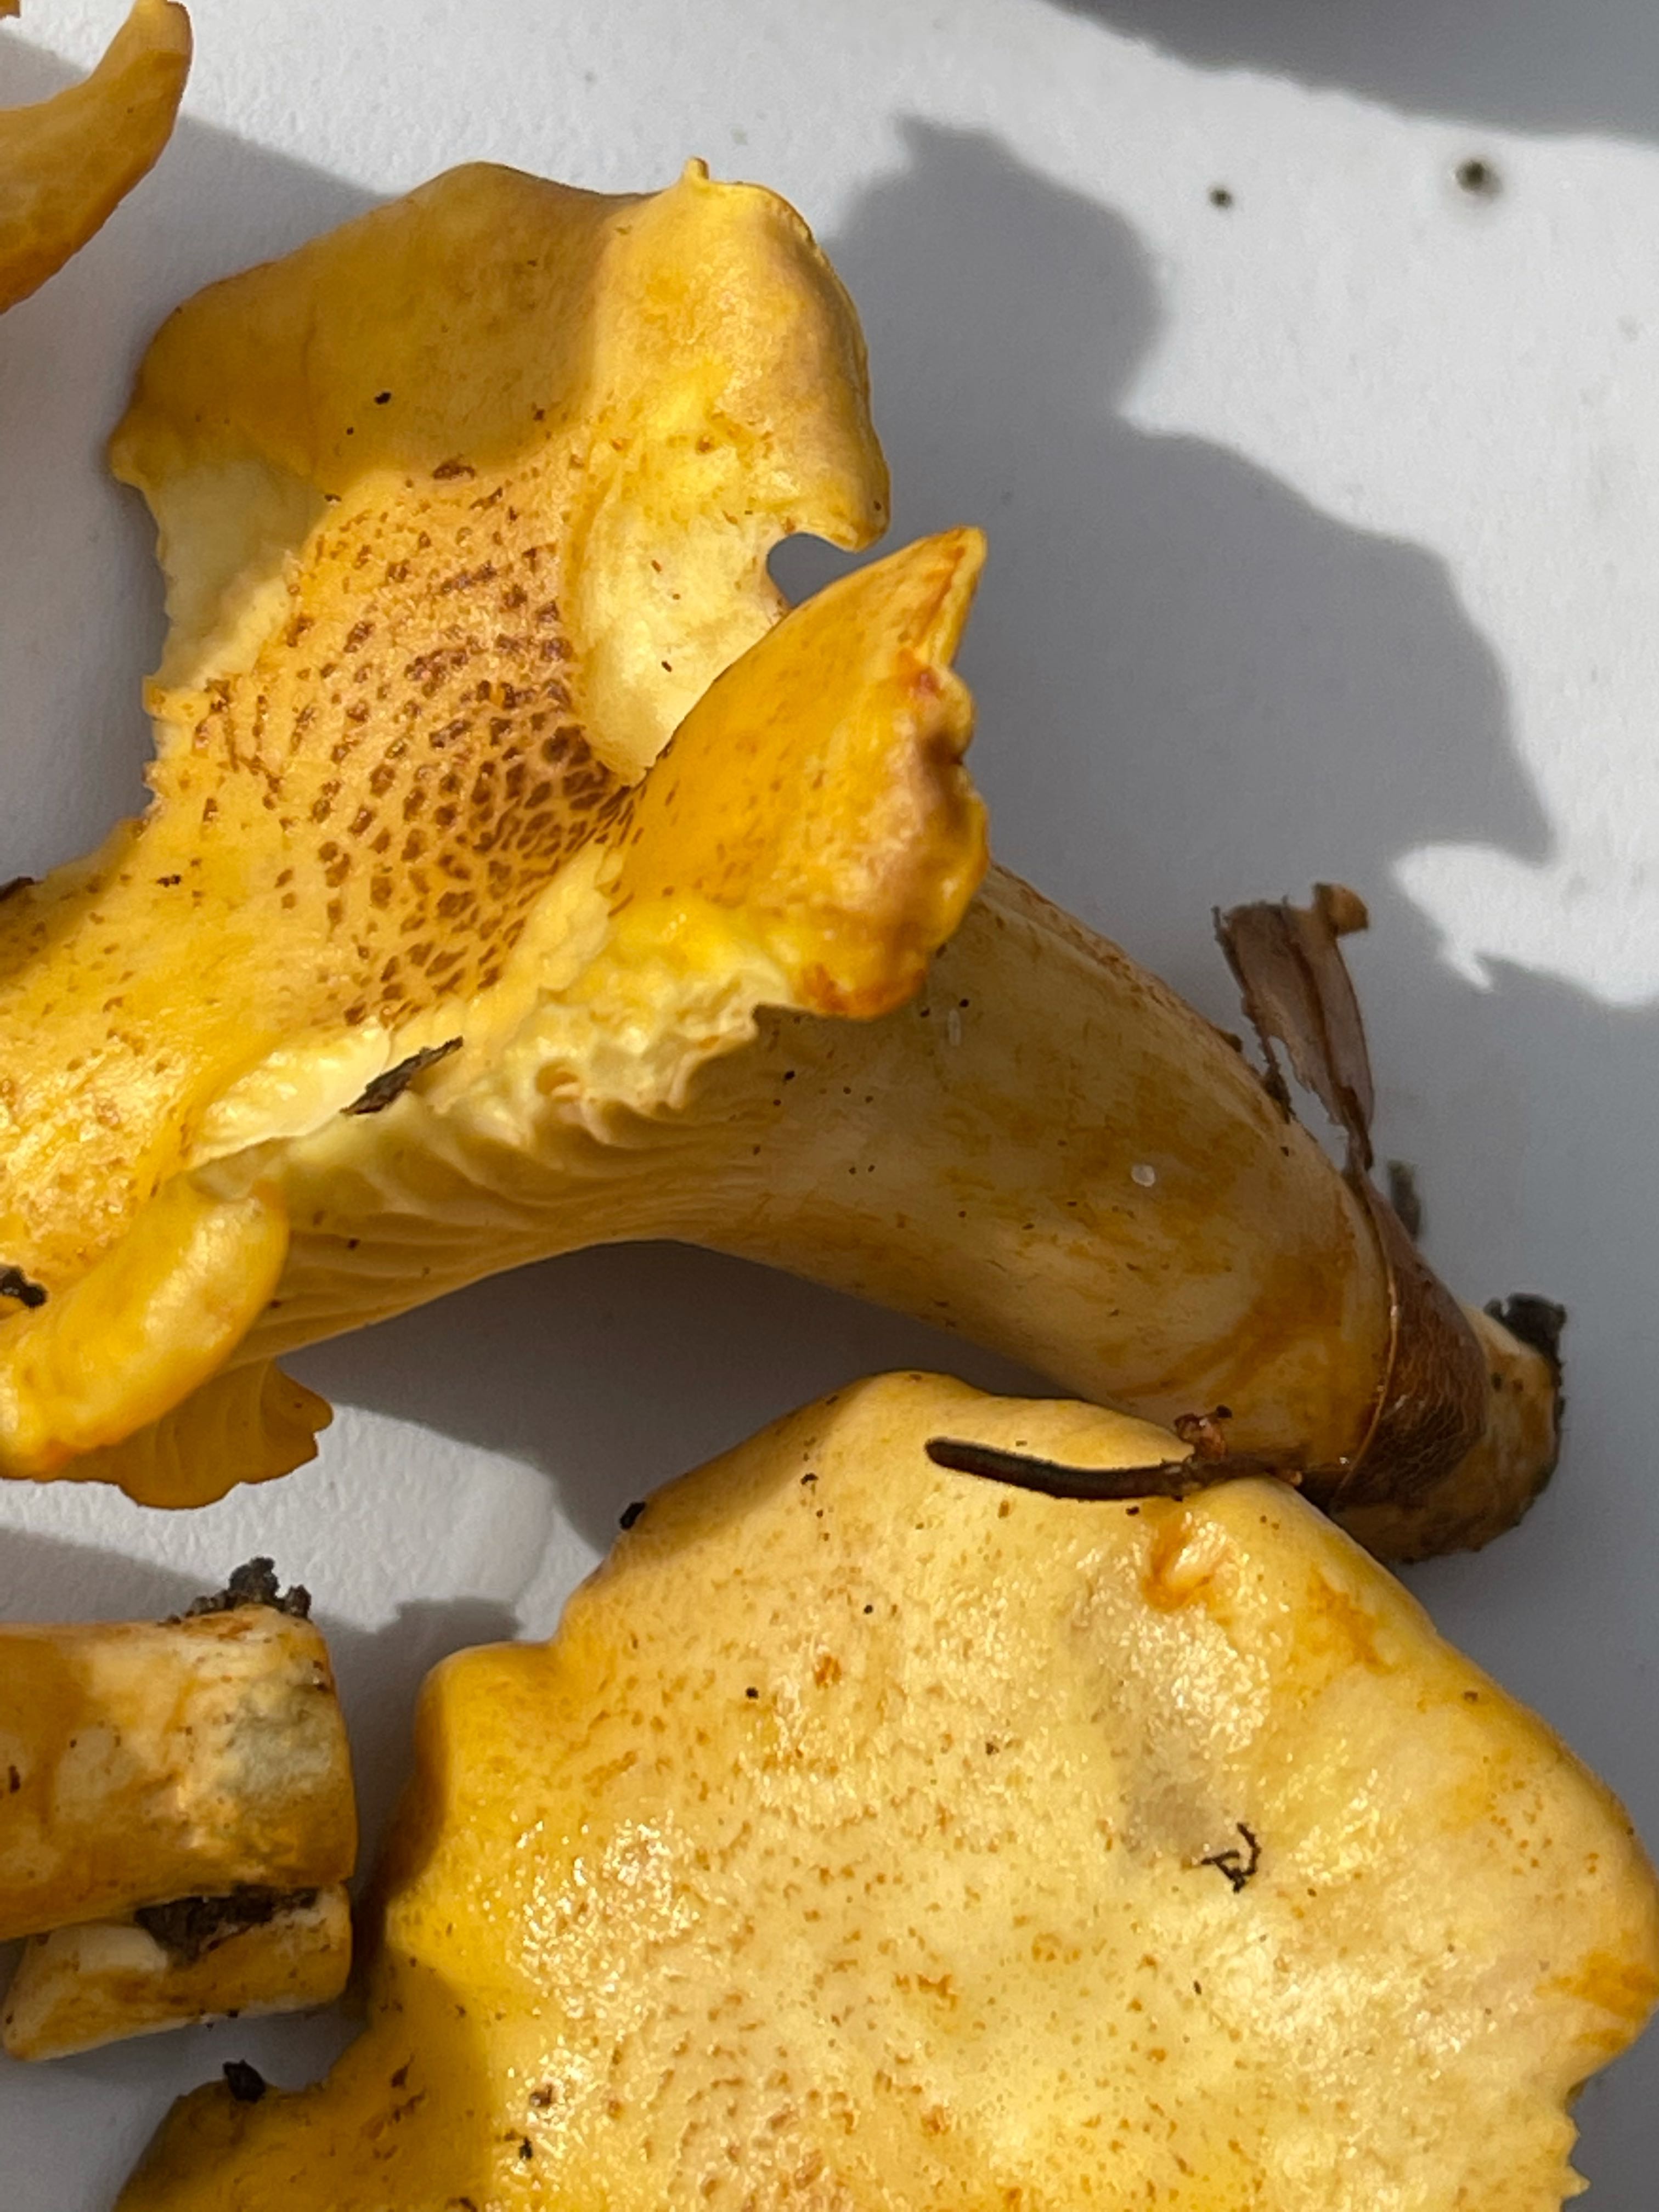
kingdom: Fungi
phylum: Basidiomycota
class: Agaricomycetes
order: Cantharellales
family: Hydnaceae
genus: Cantharellus
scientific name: Cantharellus amethysteus
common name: ametyst-kantarel
